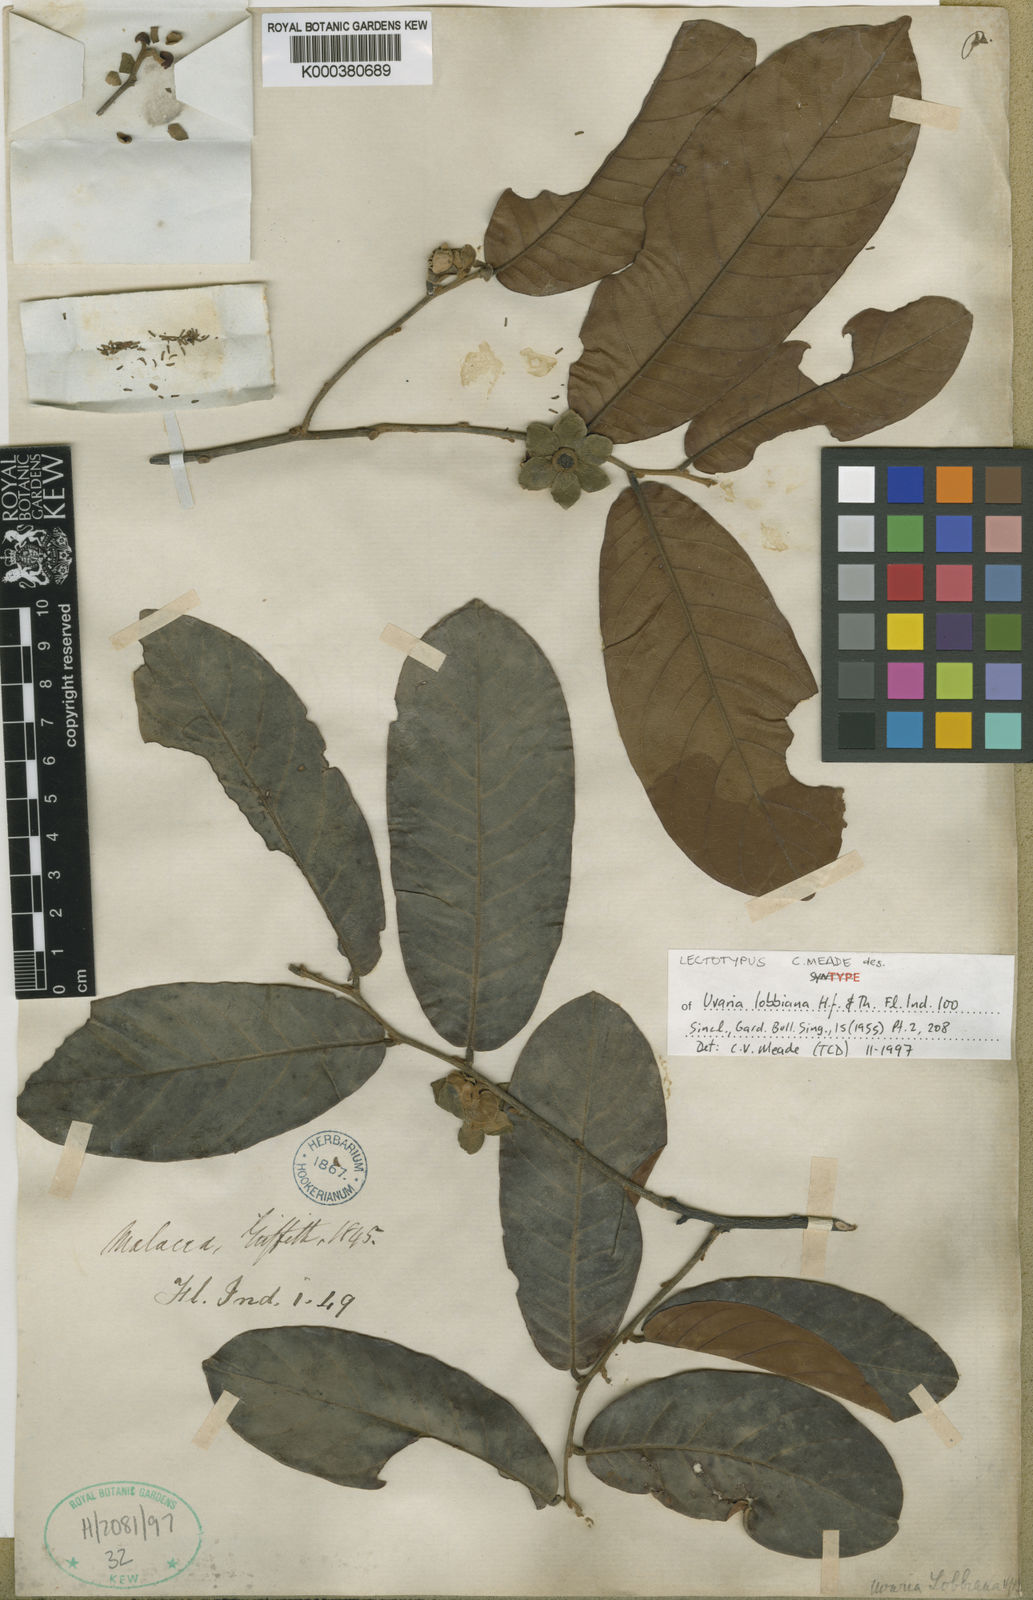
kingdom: Plantae
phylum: Tracheophyta
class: Magnoliopsida
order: Magnoliales
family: Annonaceae
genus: Uvaria
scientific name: Uvaria lobbiana
